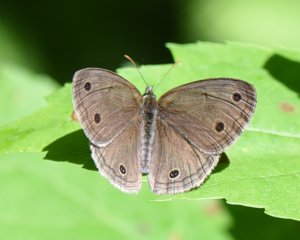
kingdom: Animalia
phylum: Arthropoda
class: Insecta
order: Lepidoptera
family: Nymphalidae
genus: Euptychia
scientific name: Euptychia cymela
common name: Little Wood Satyr
